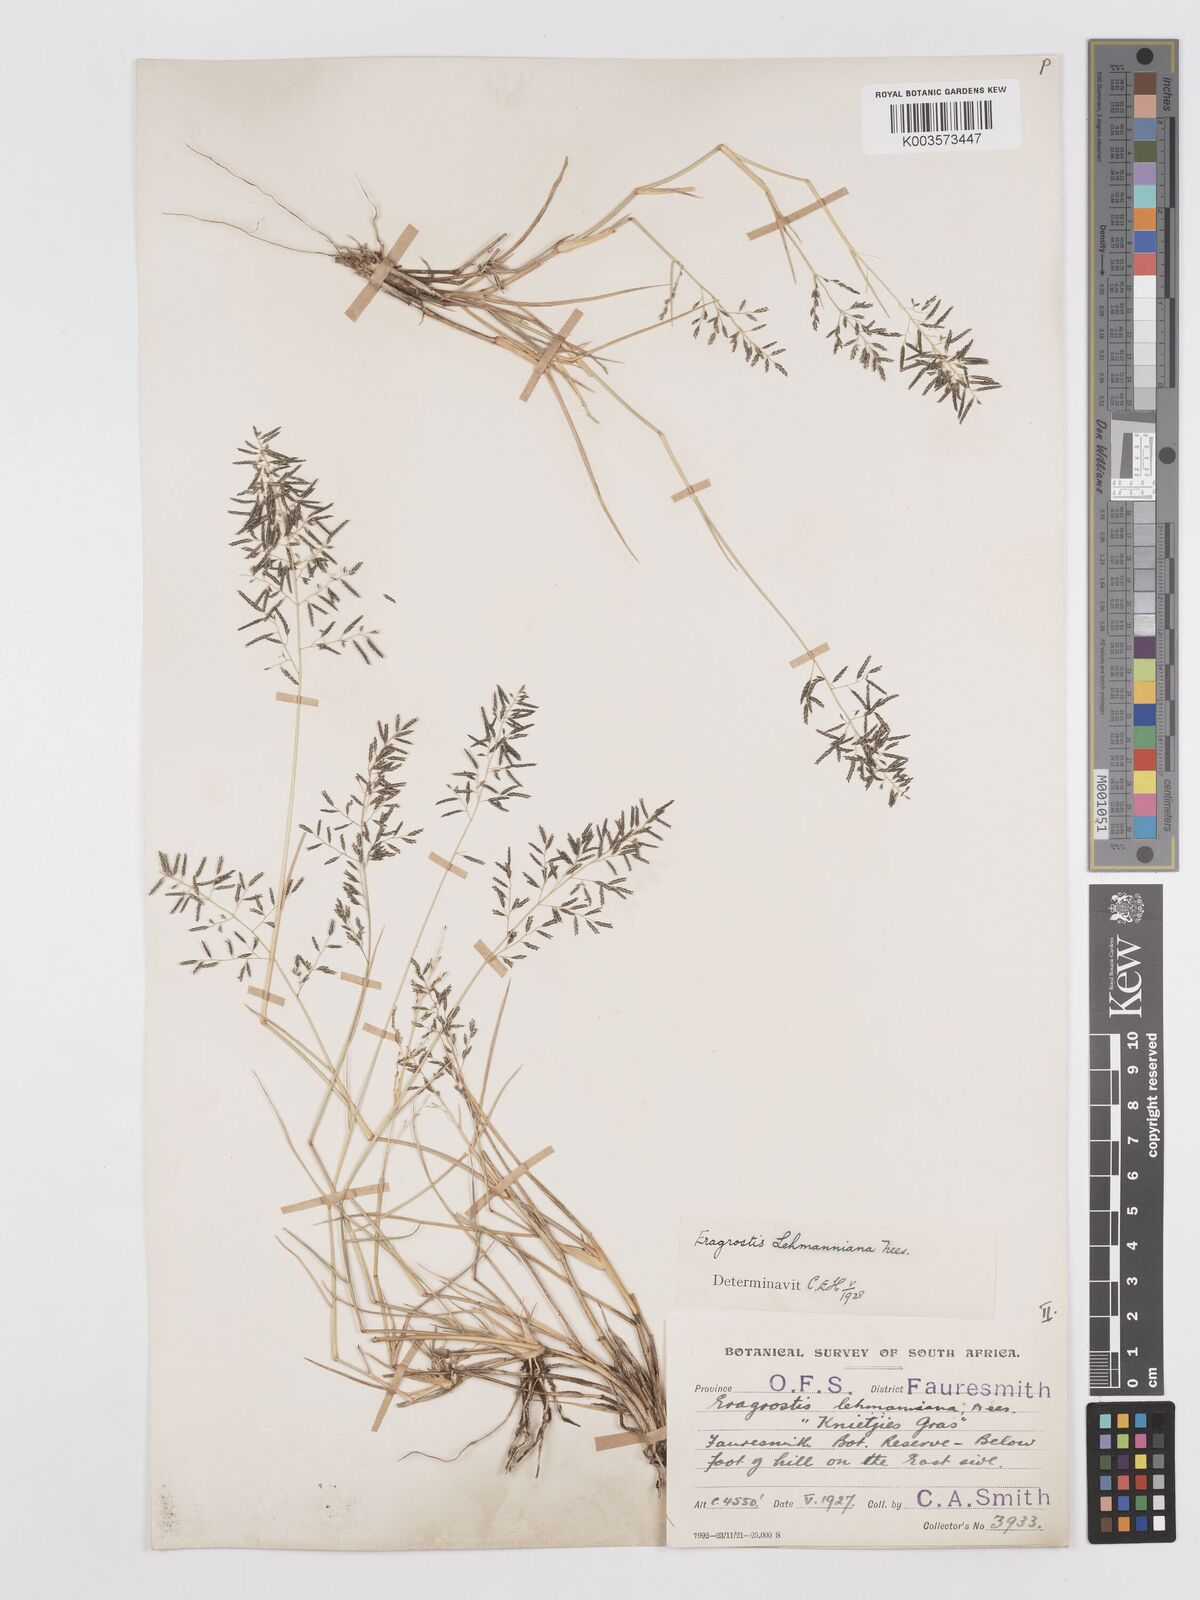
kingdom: Plantae
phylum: Tracheophyta
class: Liliopsida
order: Poales
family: Poaceae
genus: Eragrostis
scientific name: Eragrostis lehmanniana
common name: Lehmann lovegrass
